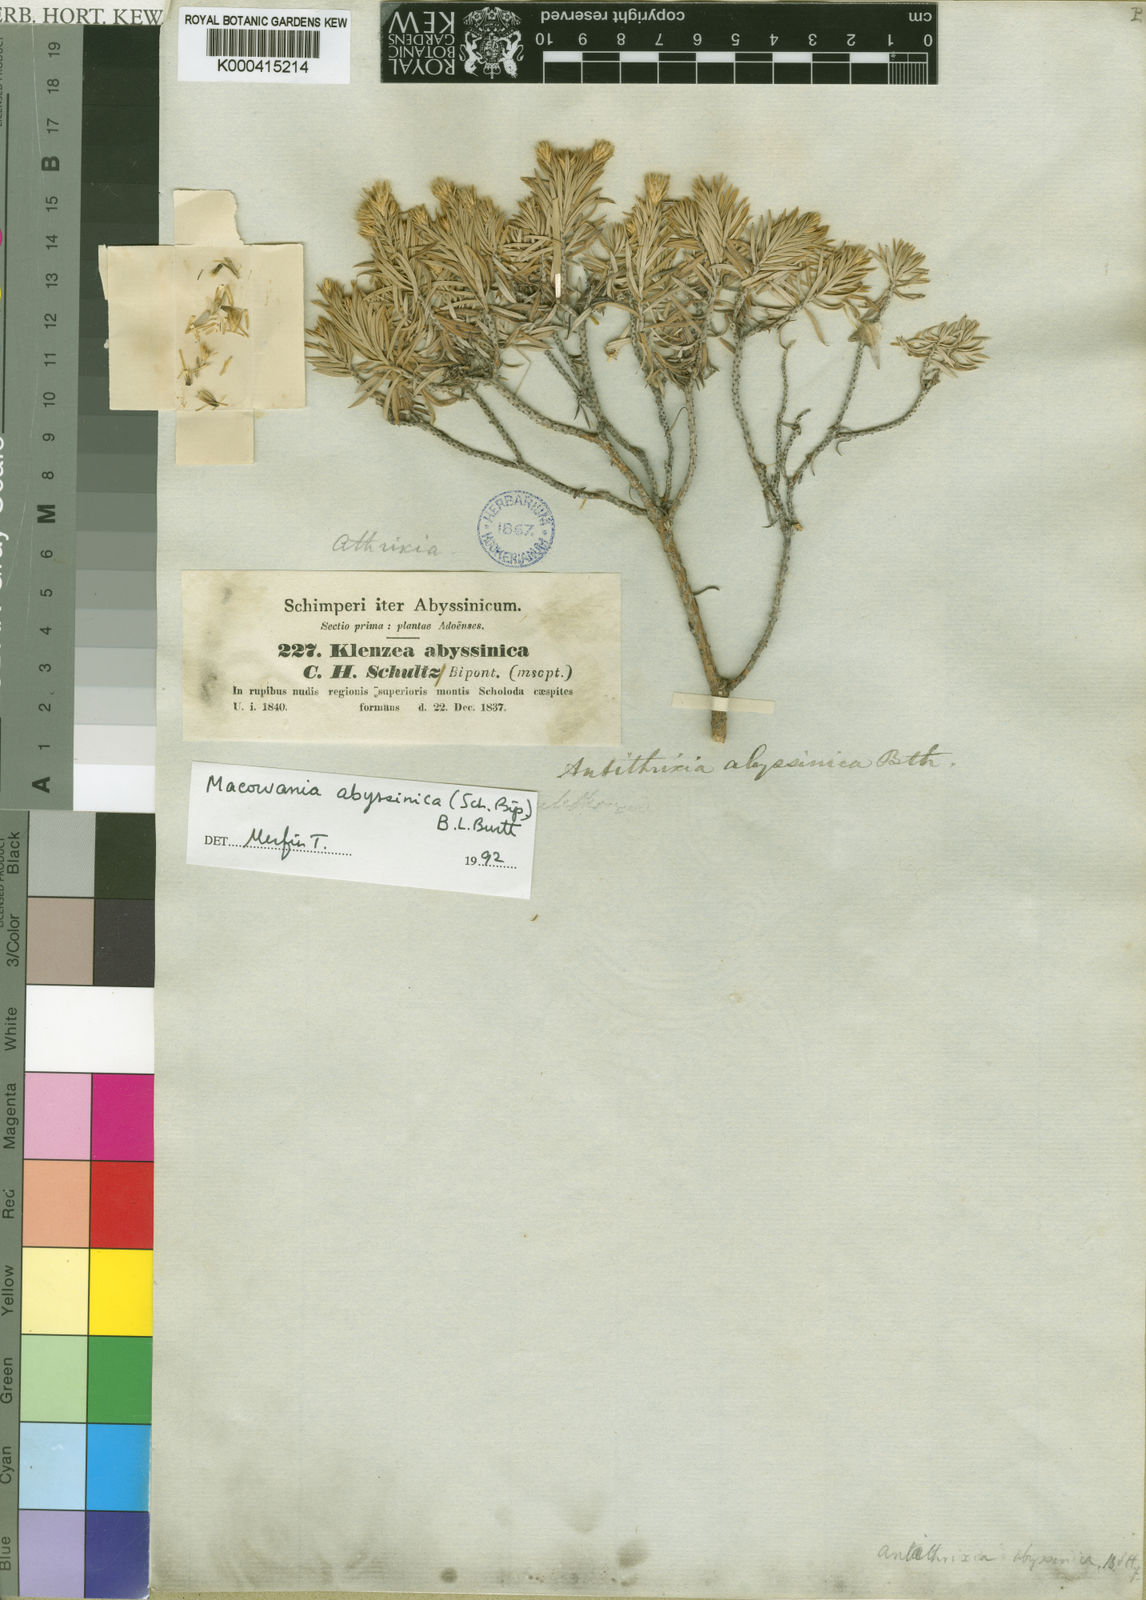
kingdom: Plantae
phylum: Tracheophyta
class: Magnoliopsida
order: Asterales
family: Asteraceae
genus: Arrowsmithia
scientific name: Arrowsmithia abyssinica
